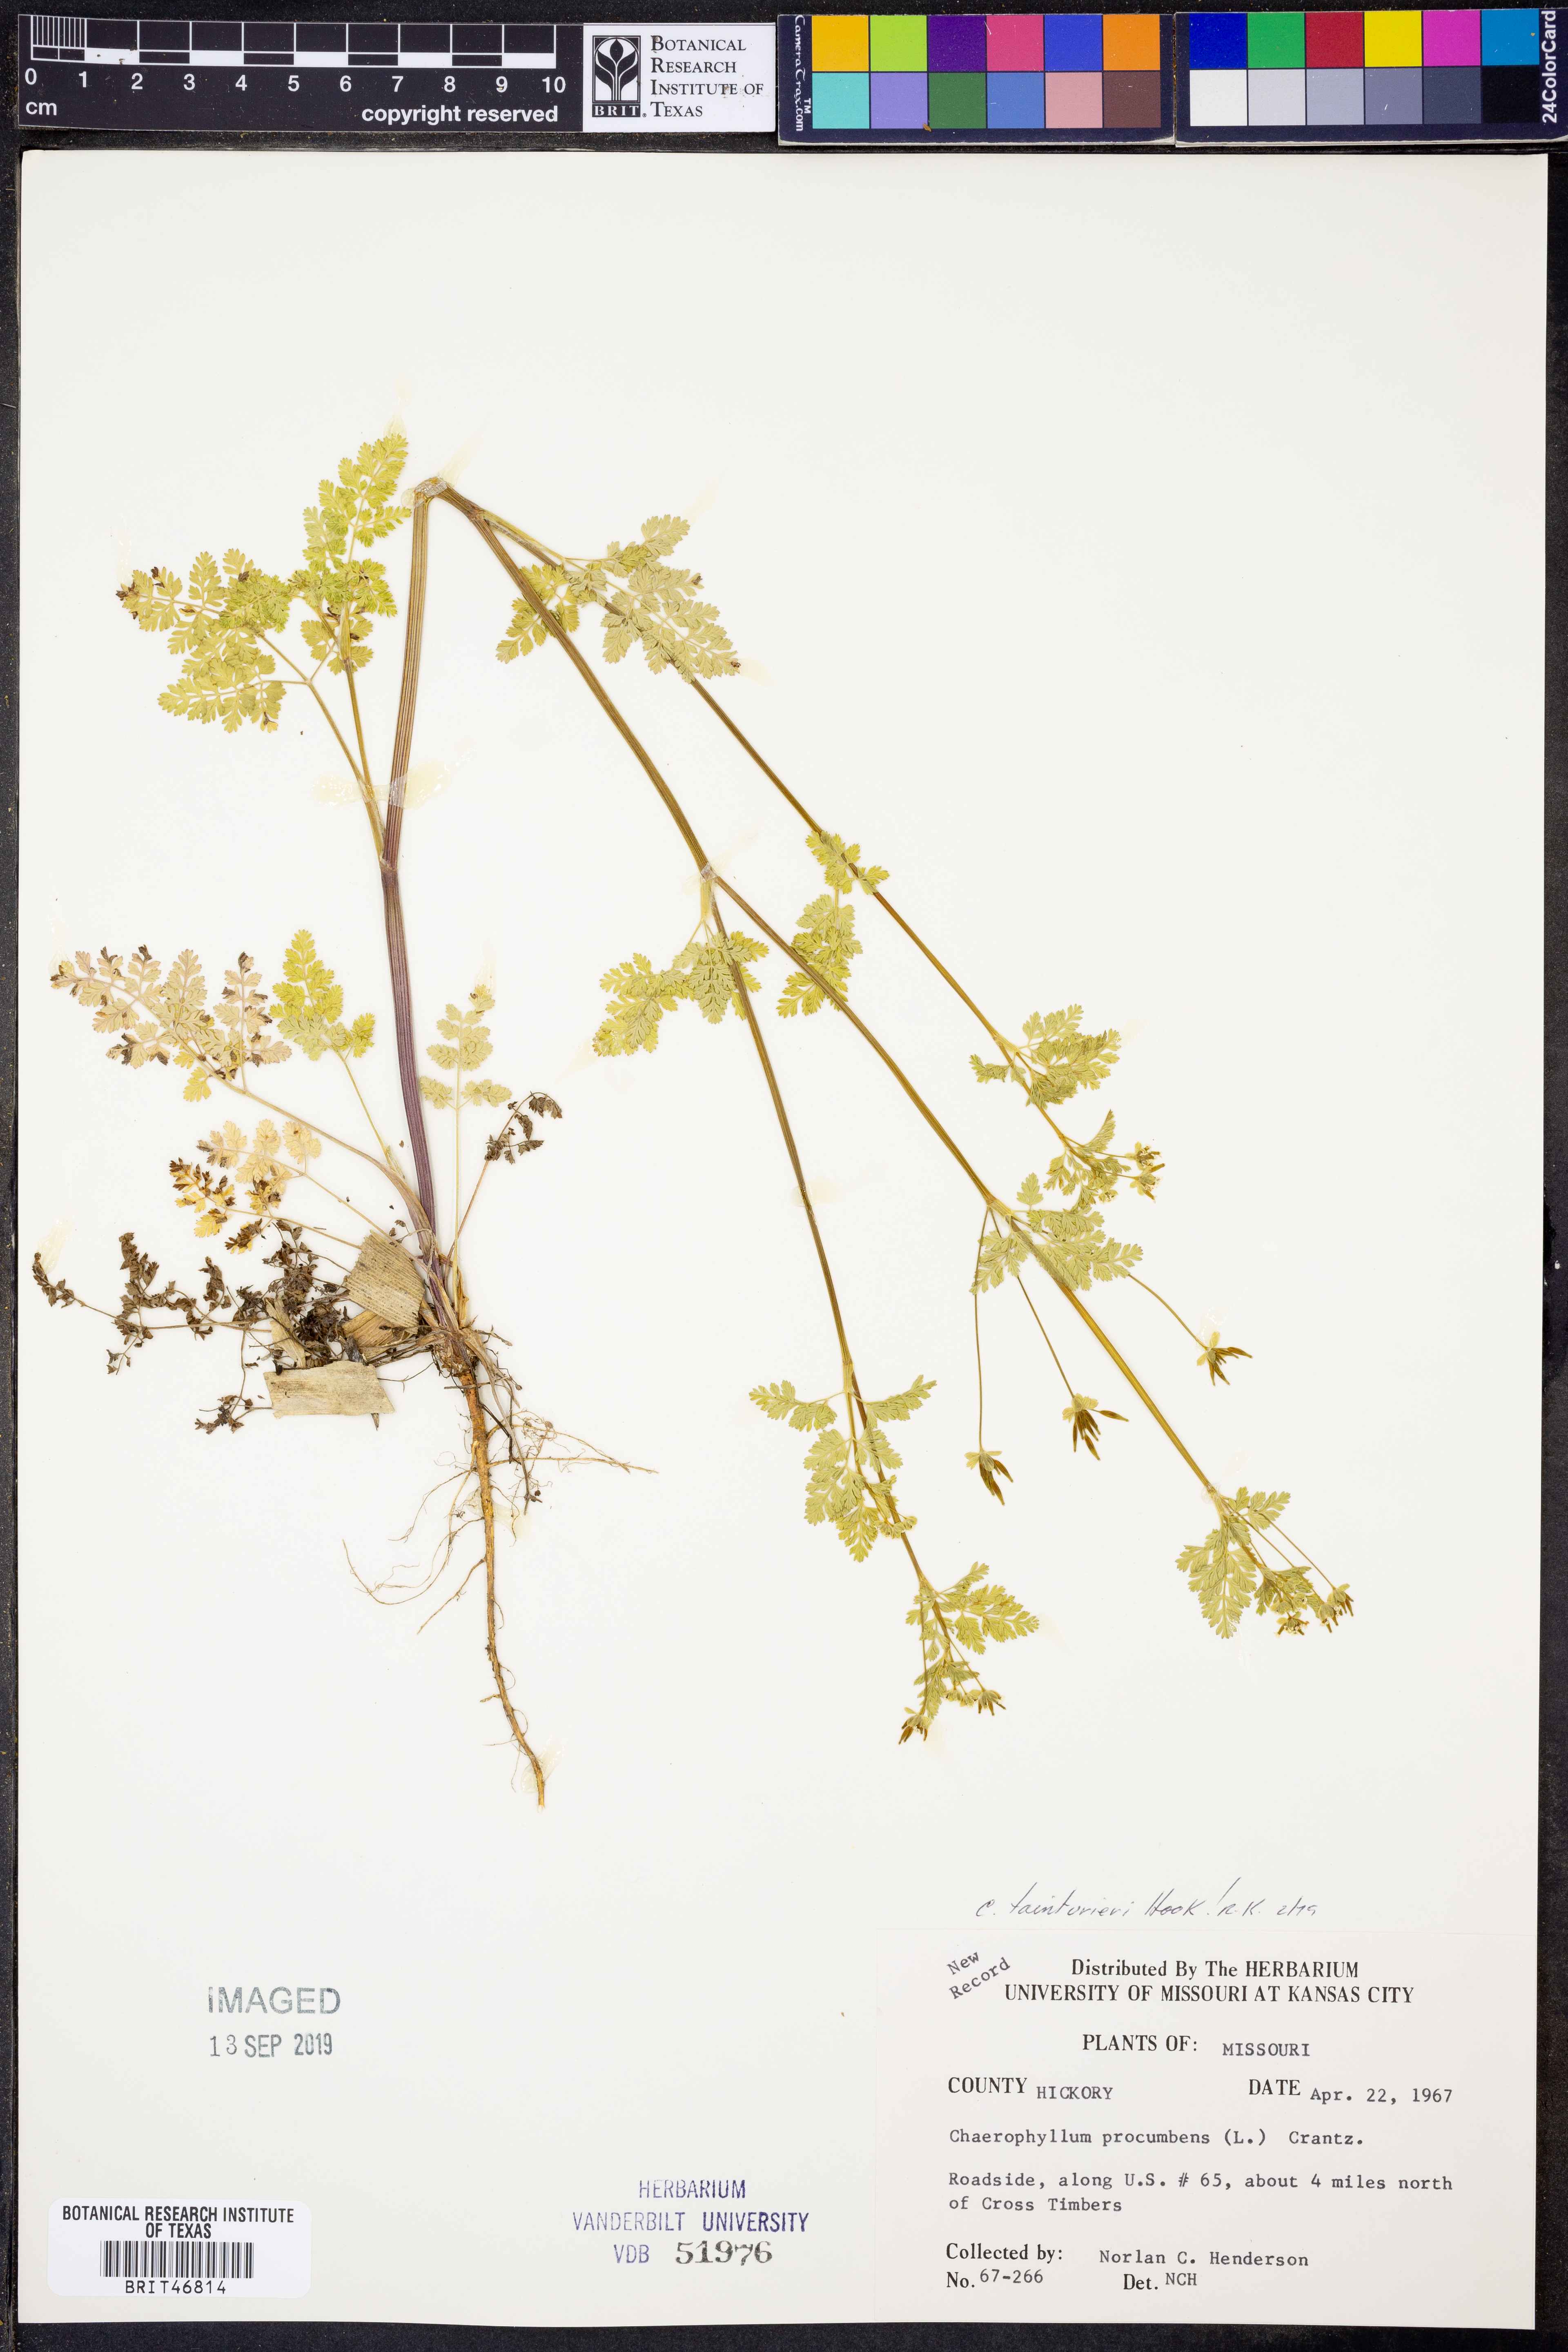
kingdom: Plantae
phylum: Tracheophyta
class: Magnoliopsida
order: Apiales
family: Apiaceae
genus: Chaerophyllum
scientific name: Chaerophyllum tainturieri
